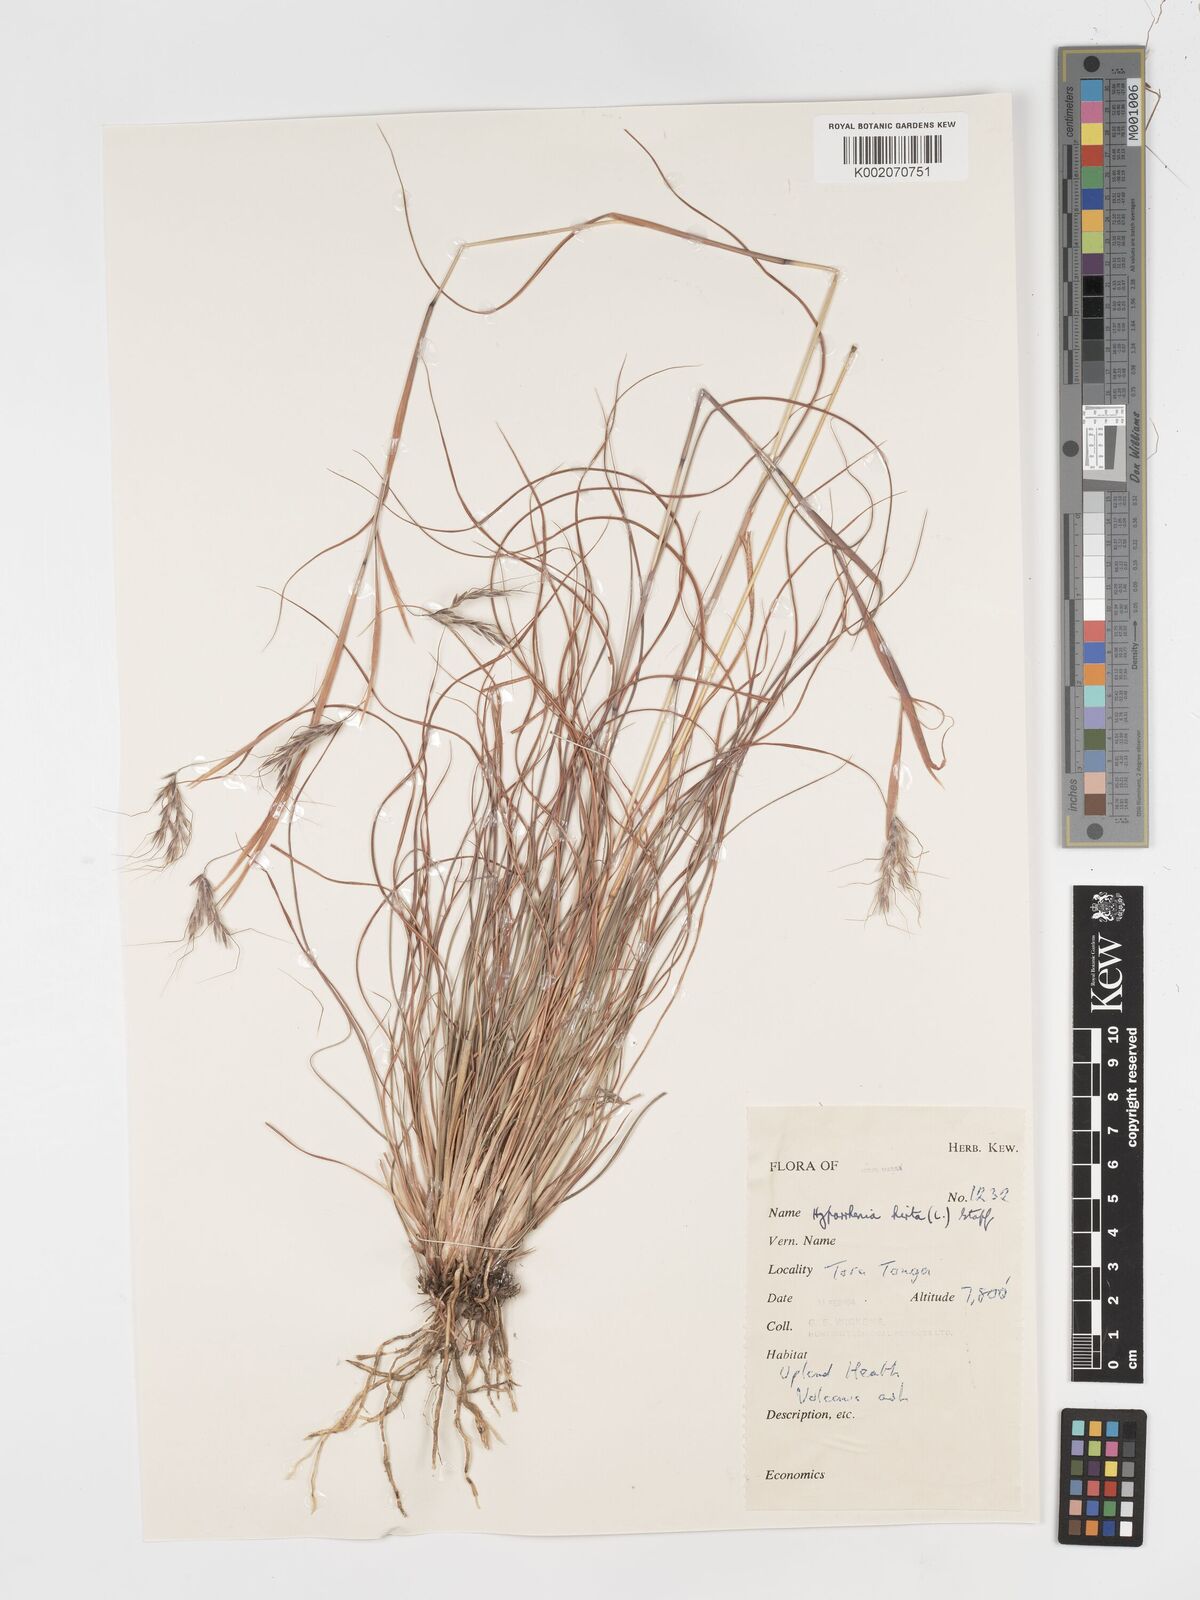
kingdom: Plantae
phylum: Tracheophyta
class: Liliopsida
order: Poales
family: Poaceae
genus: Hyparrhenia
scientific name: Hyparrhenia hirta
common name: Thatching grass
